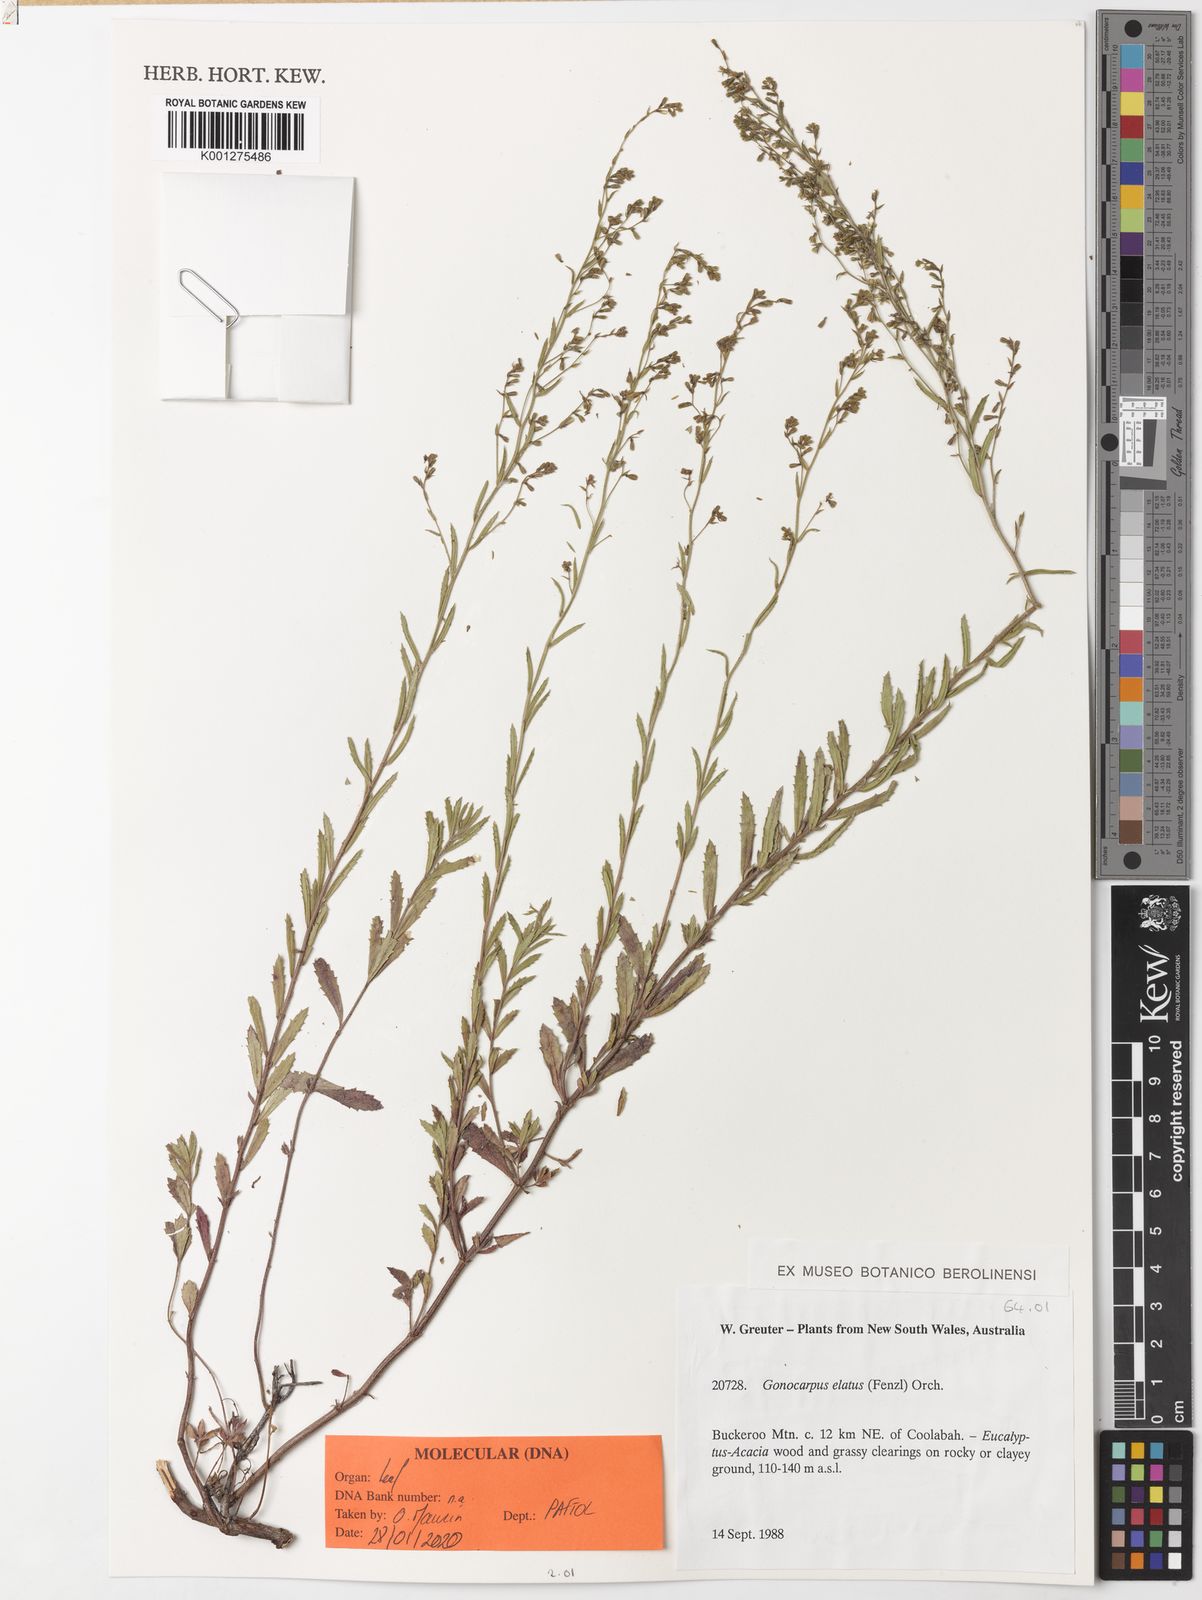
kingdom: Plantae
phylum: Tracheophyta
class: Magnoliopsida
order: Saxifragales
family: Haloragaceae
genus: Gonocarpus
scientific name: Gonocarpus elatus
